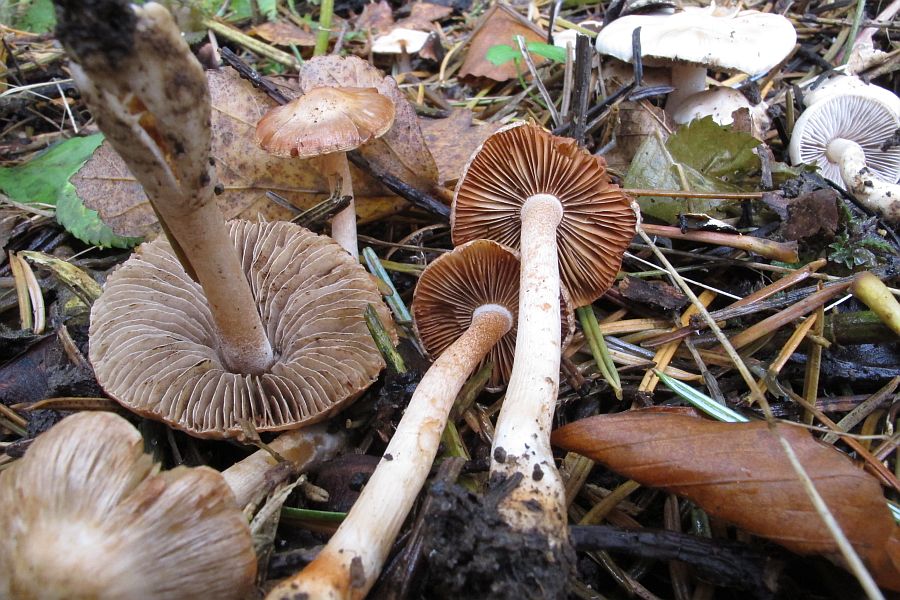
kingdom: Fungi
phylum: Basidiomycota
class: Agaricomycetes
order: Agaricales
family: Inocybaceae
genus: Inocybe
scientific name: Inocybe
